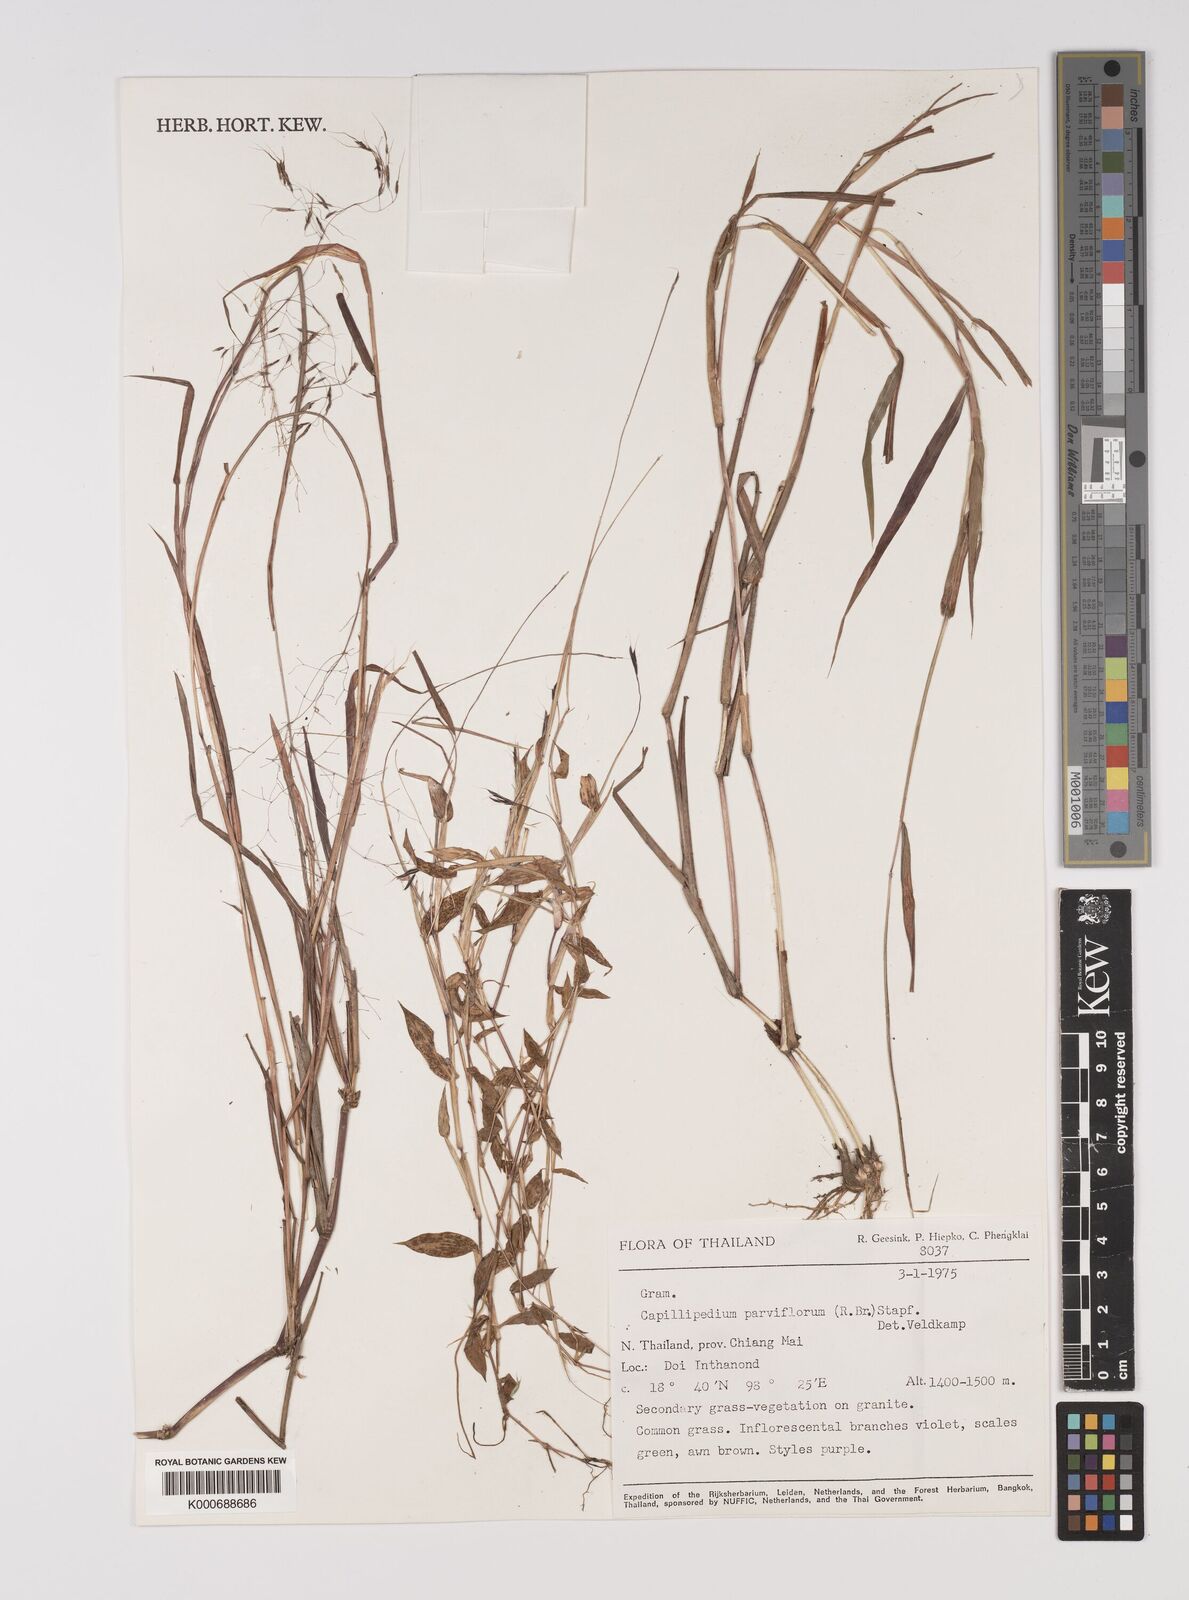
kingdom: Plantae
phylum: Tracheophyta
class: Liliopsida
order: Poales
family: Poaceae
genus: Capillipedium
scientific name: Capillipedium parviflorum
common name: Golden-beard
